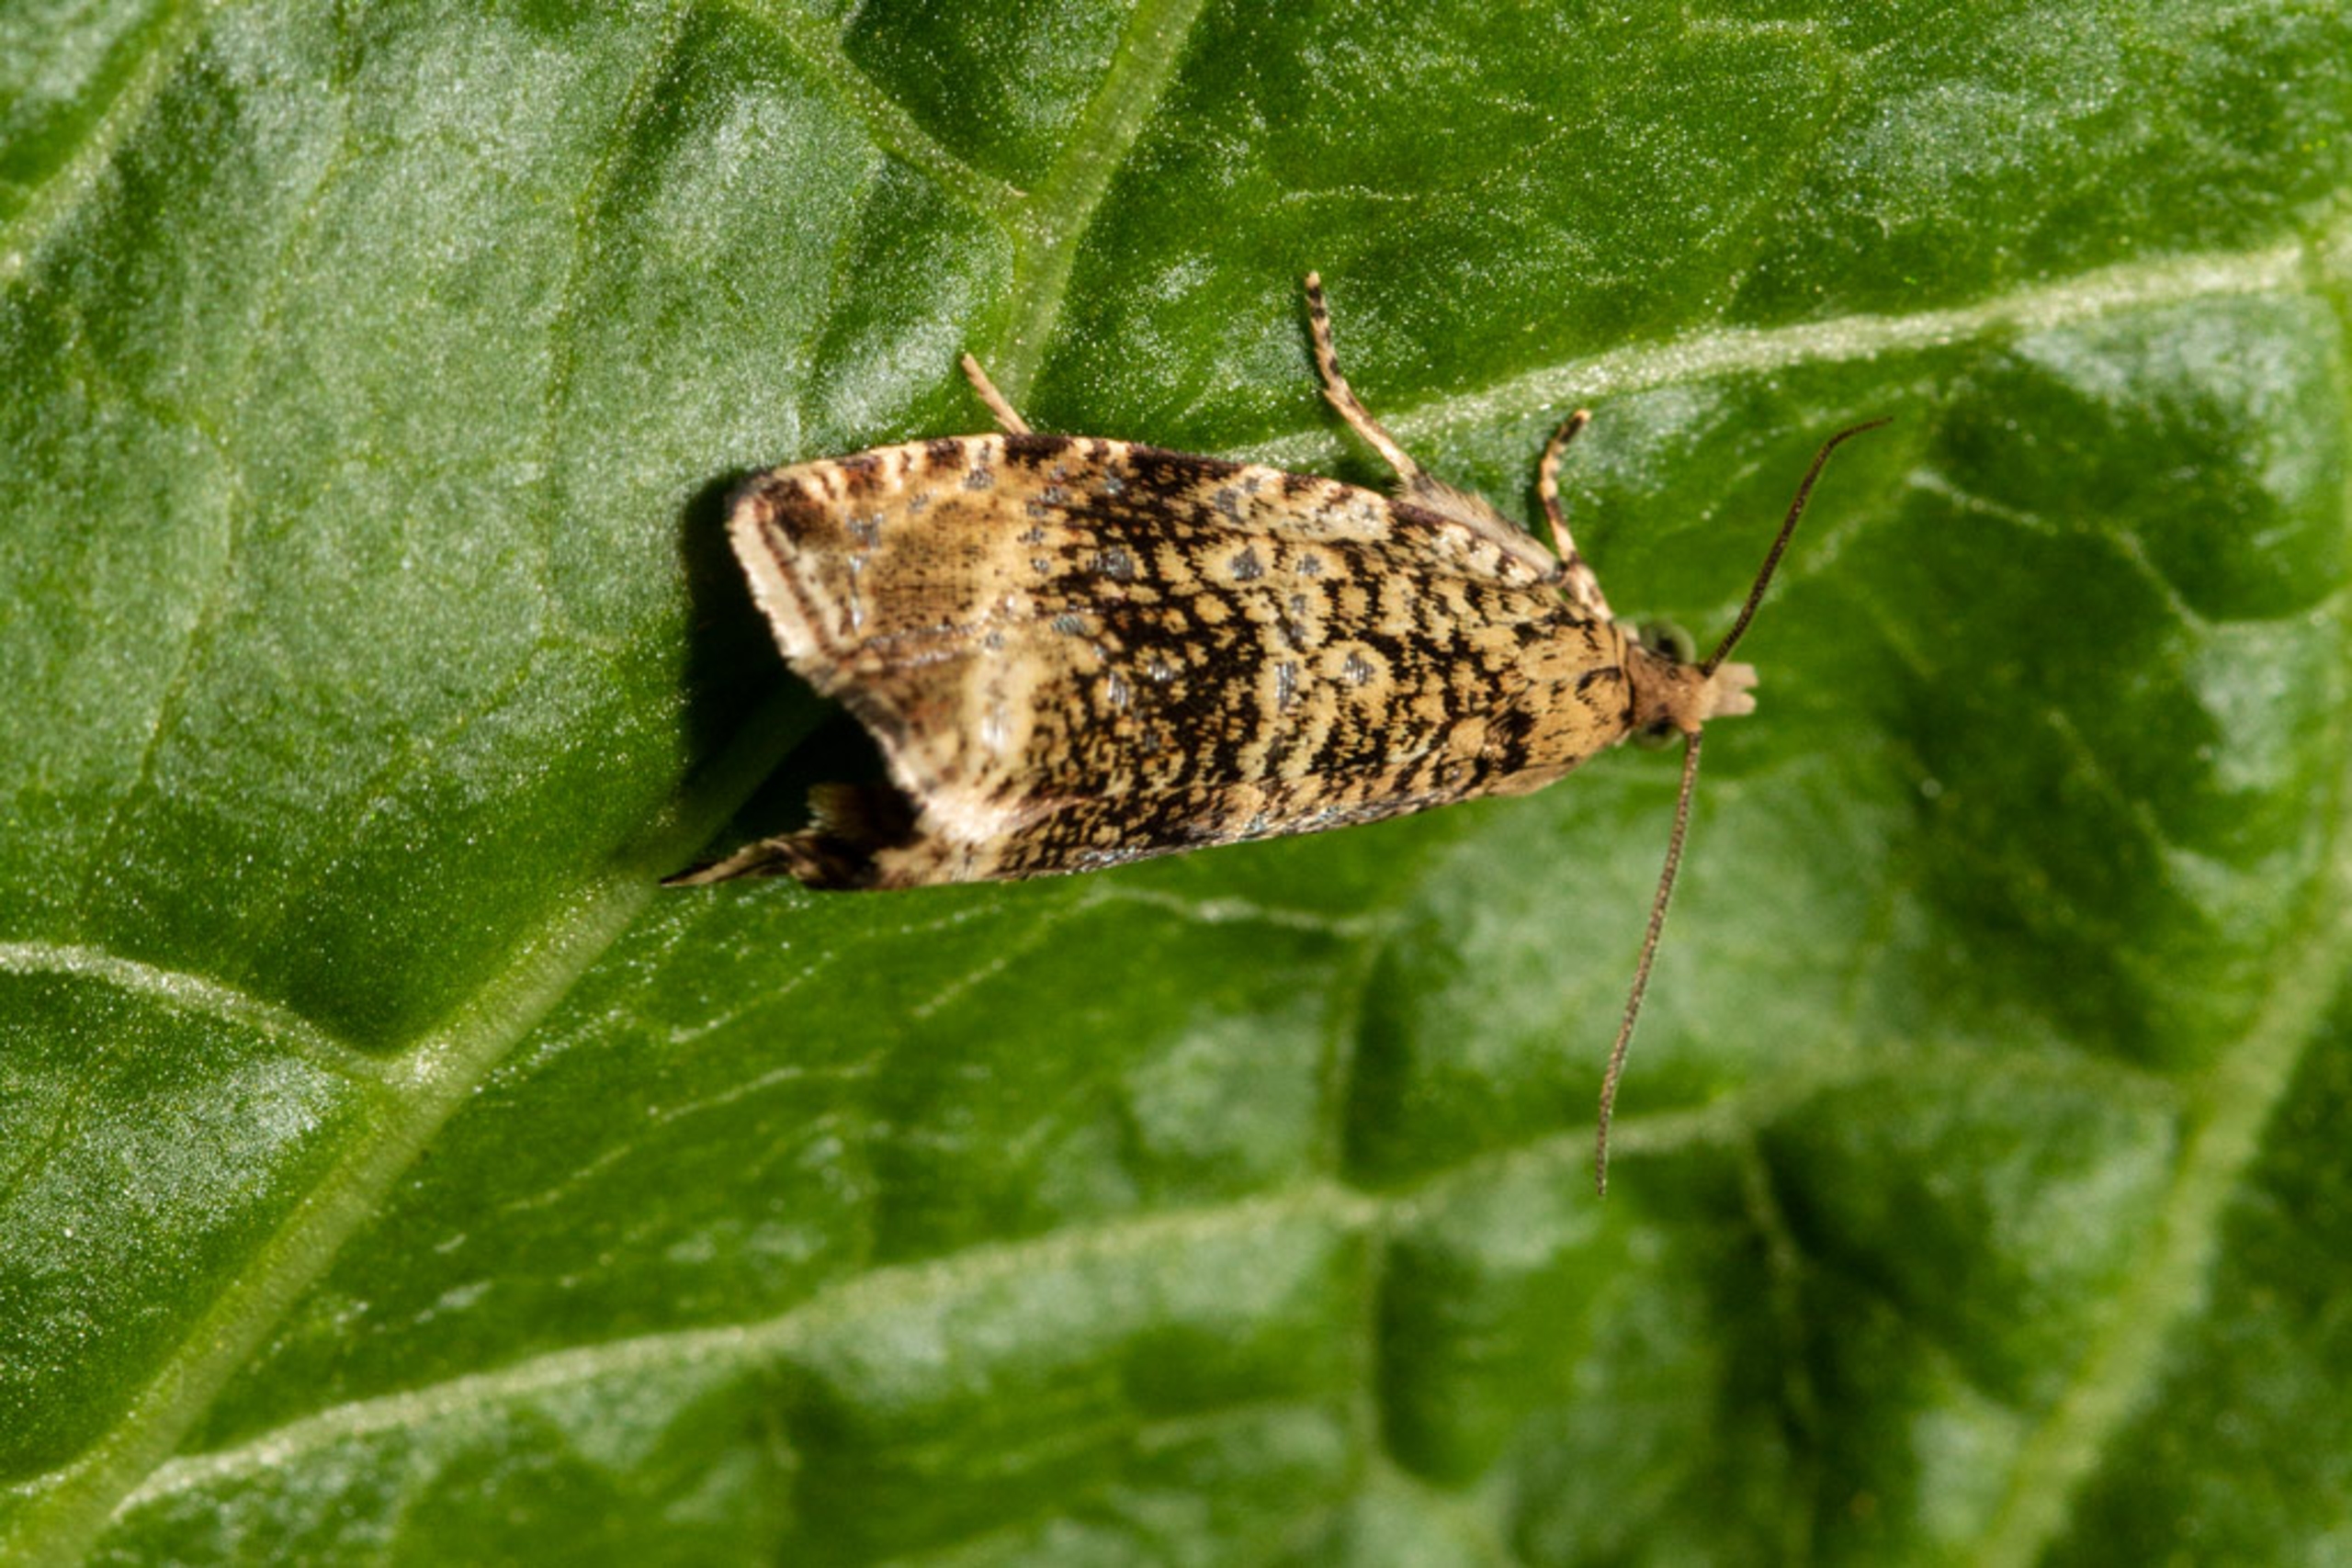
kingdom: Animalia
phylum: Arthropoda
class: Insecta
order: Lepidoptera
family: Tortricidae
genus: Syricoris
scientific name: Syricoris lacunana
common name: Rød jordbærvikler
